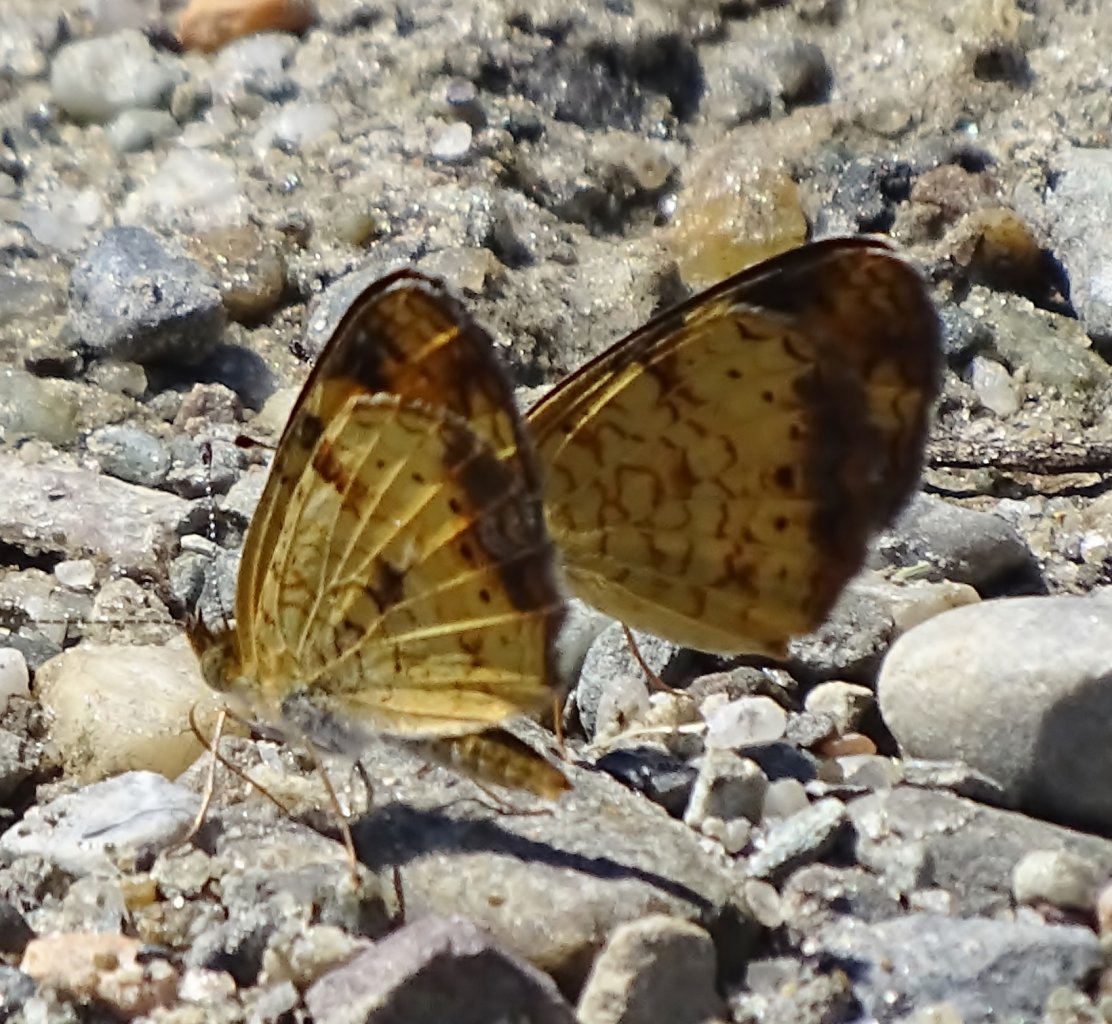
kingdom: Animalia
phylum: Arthropoda
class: Insecta
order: Lepidoptera
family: Nymphalidae
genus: Phyciodes
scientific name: Phyciodes
